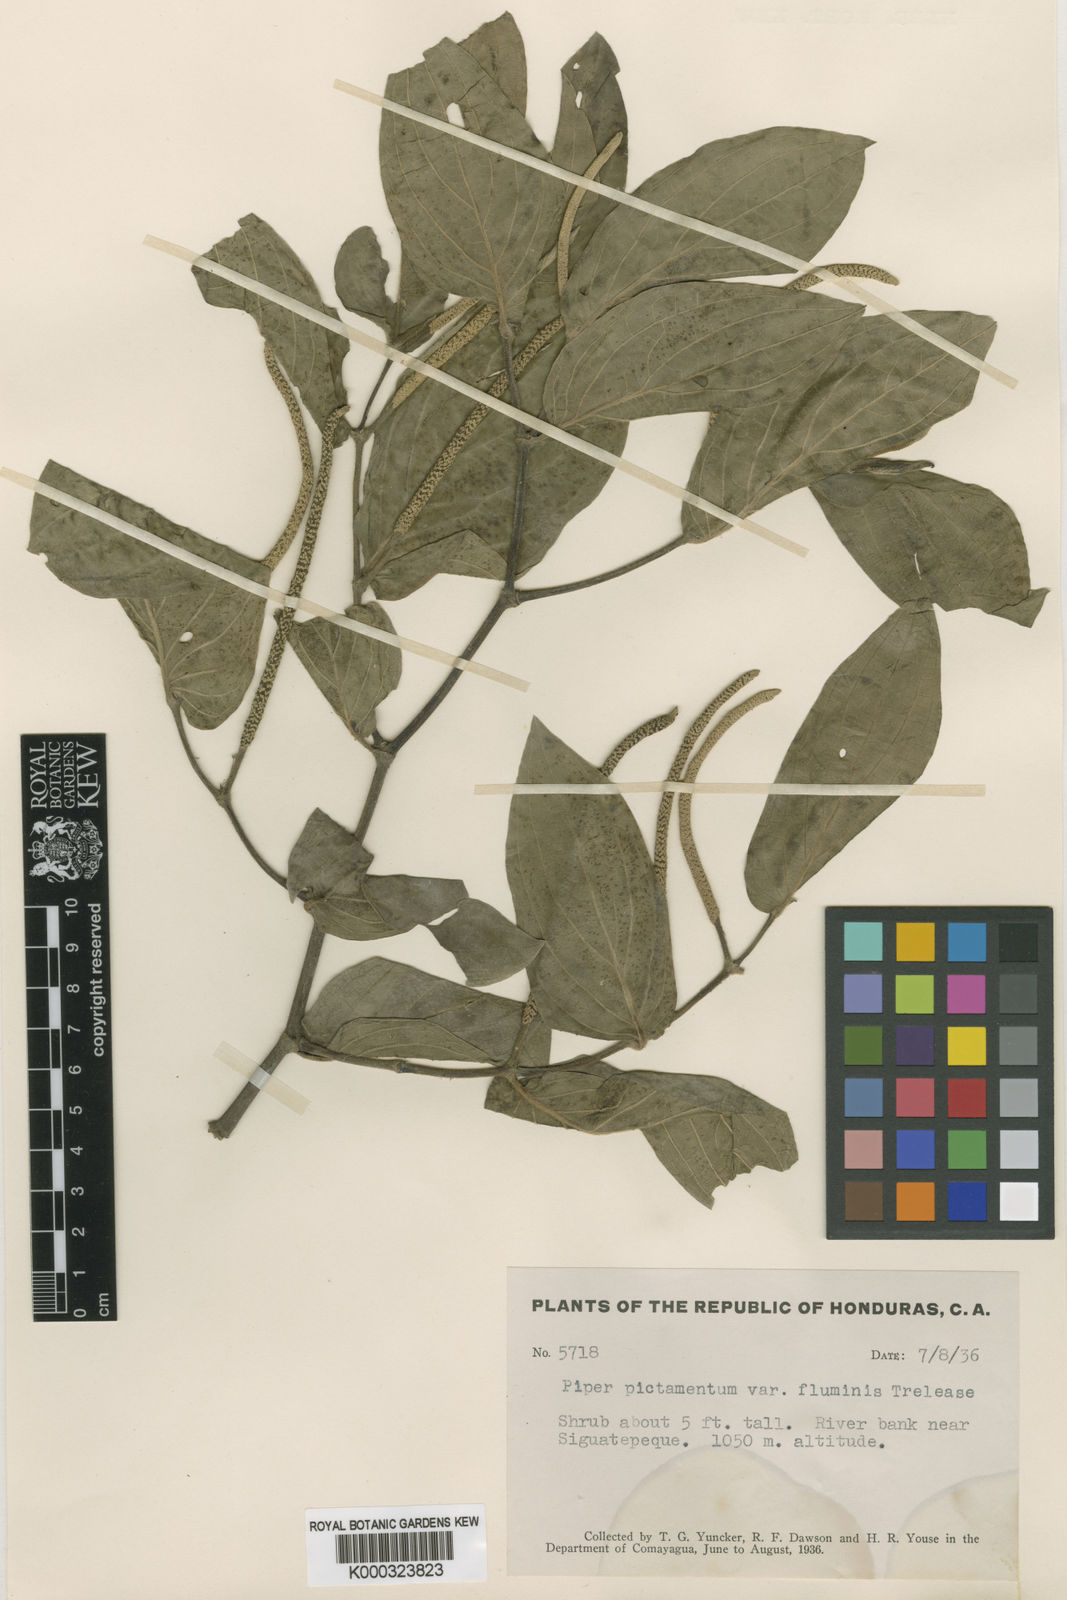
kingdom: Plantae
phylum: Tracheophyta
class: Magnoliopsida
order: Piperales
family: Piperaceae
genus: Piper
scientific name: Piper achoteanum
